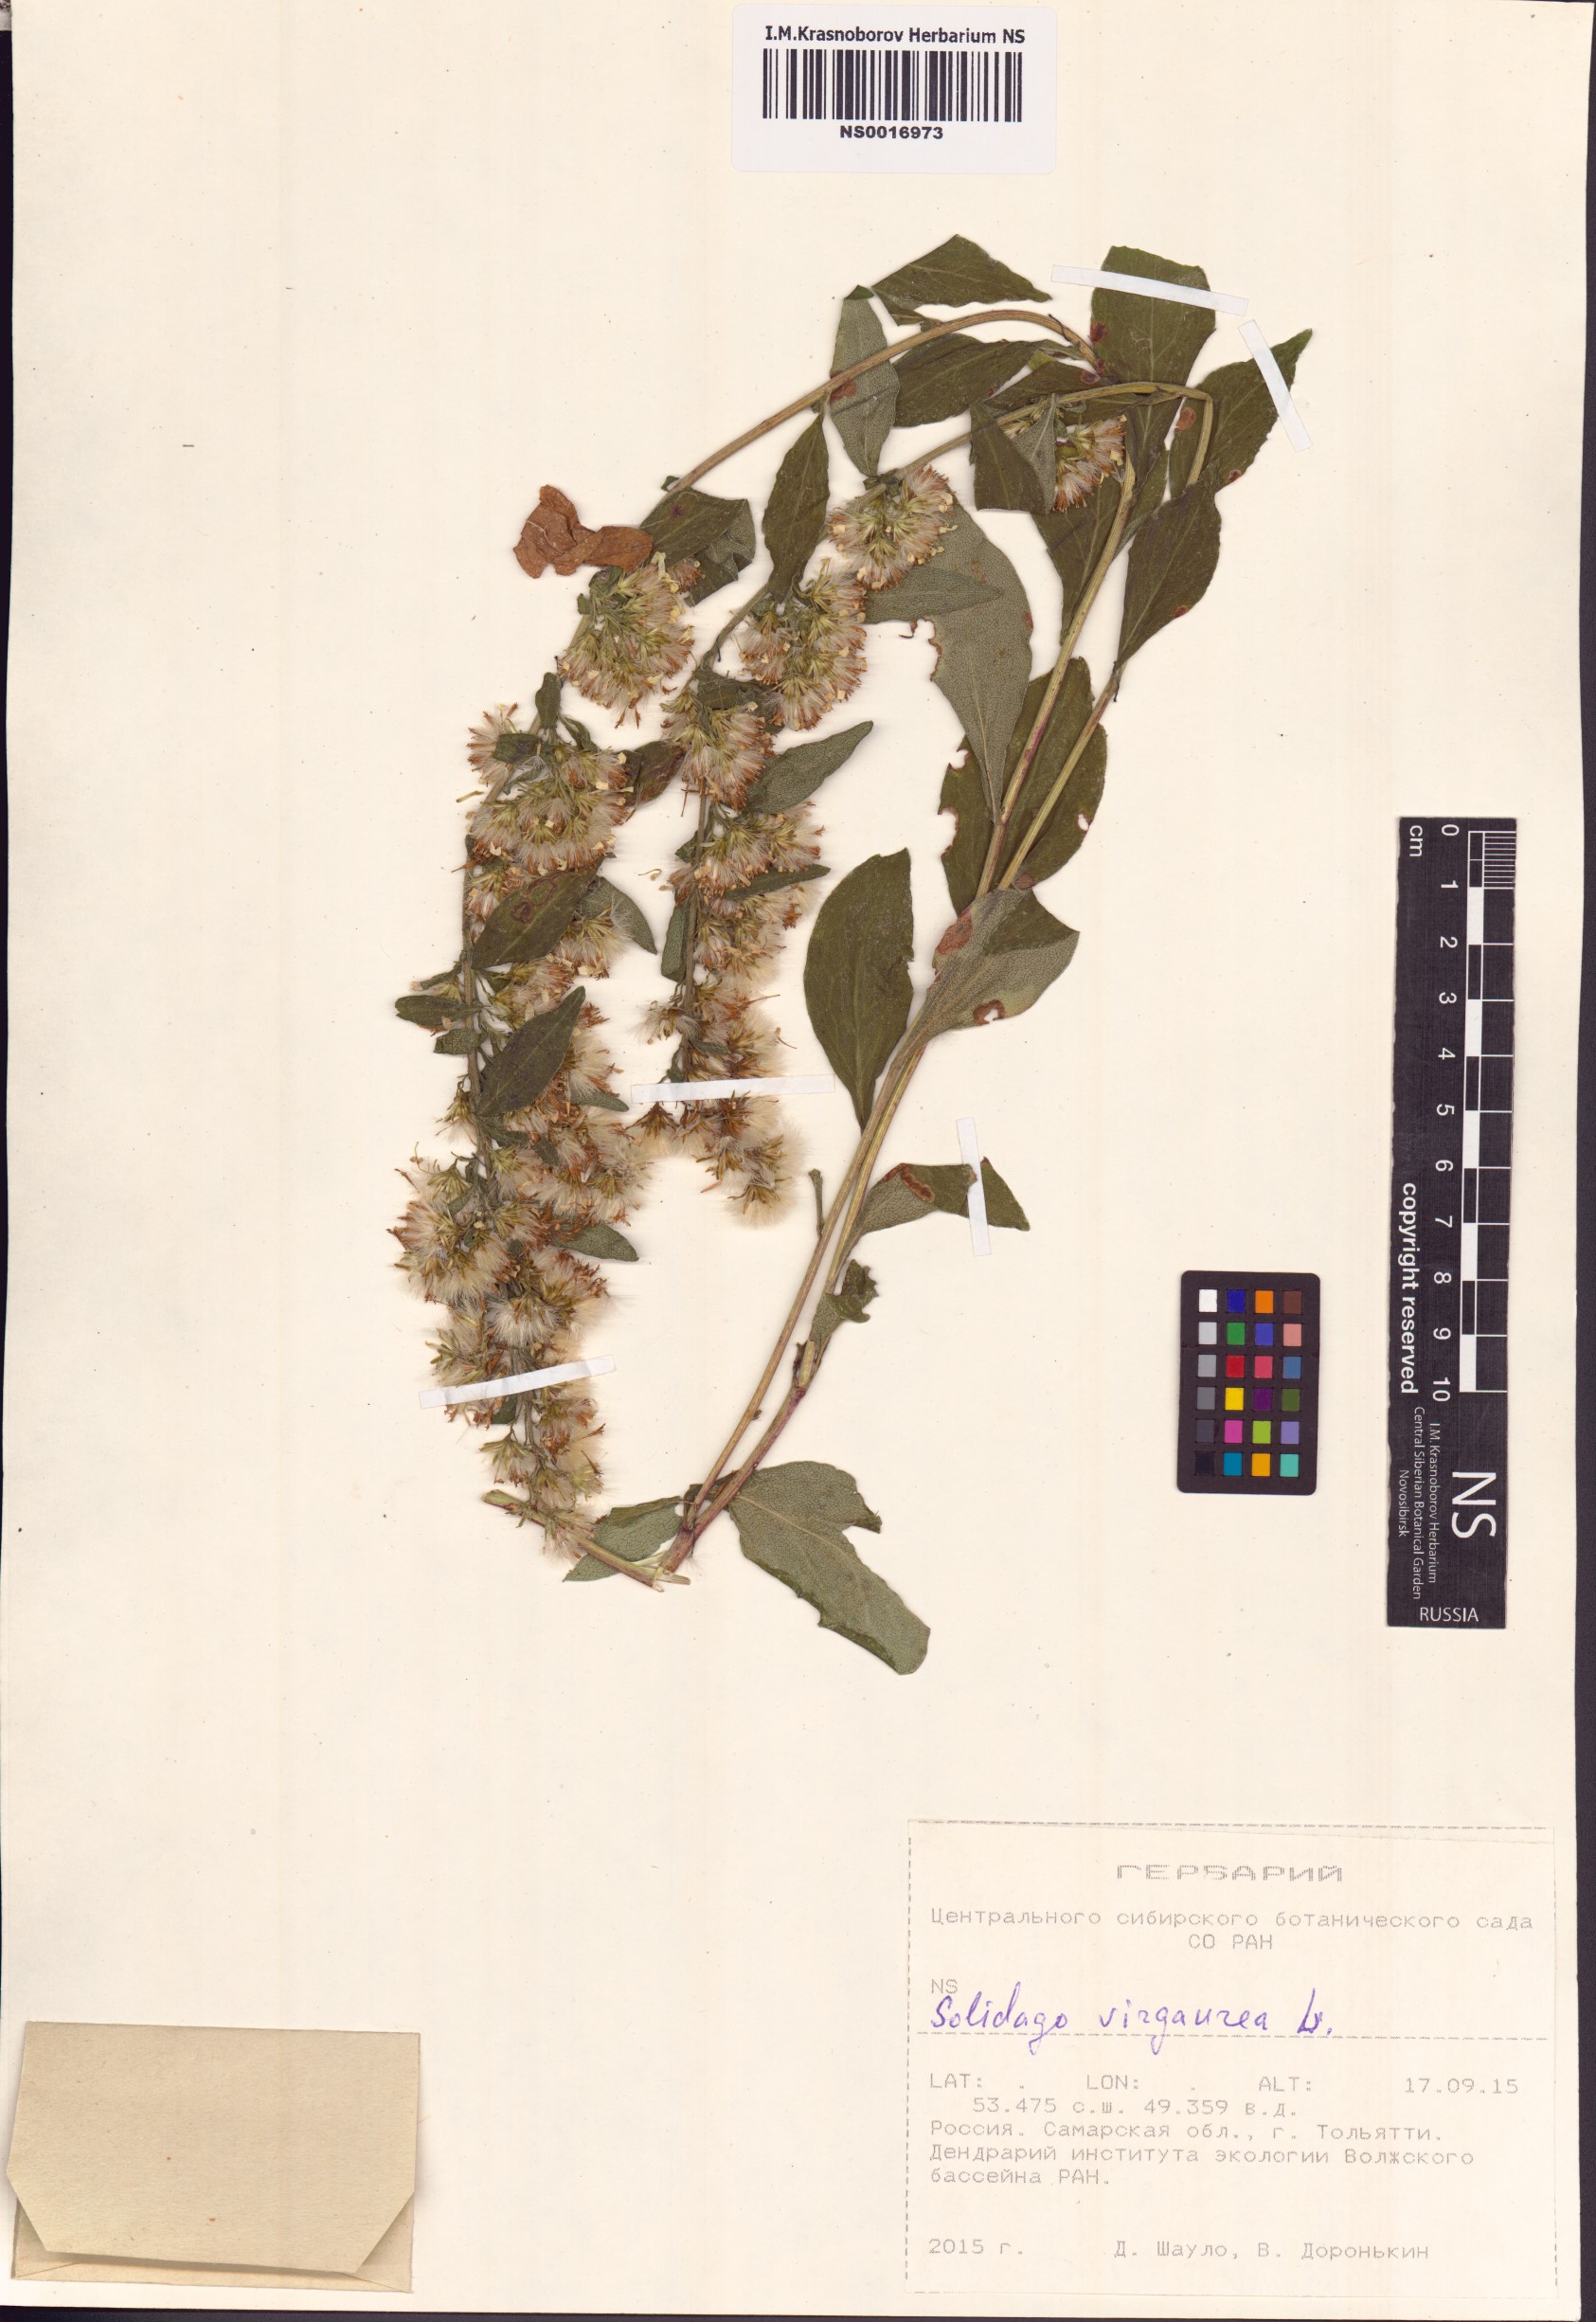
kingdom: Plantae
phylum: Tracheophyta
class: Magnoliopsida
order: Asterales
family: Asteraceae
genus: Solidago
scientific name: Solidago virgaurea
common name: Goldenrod
